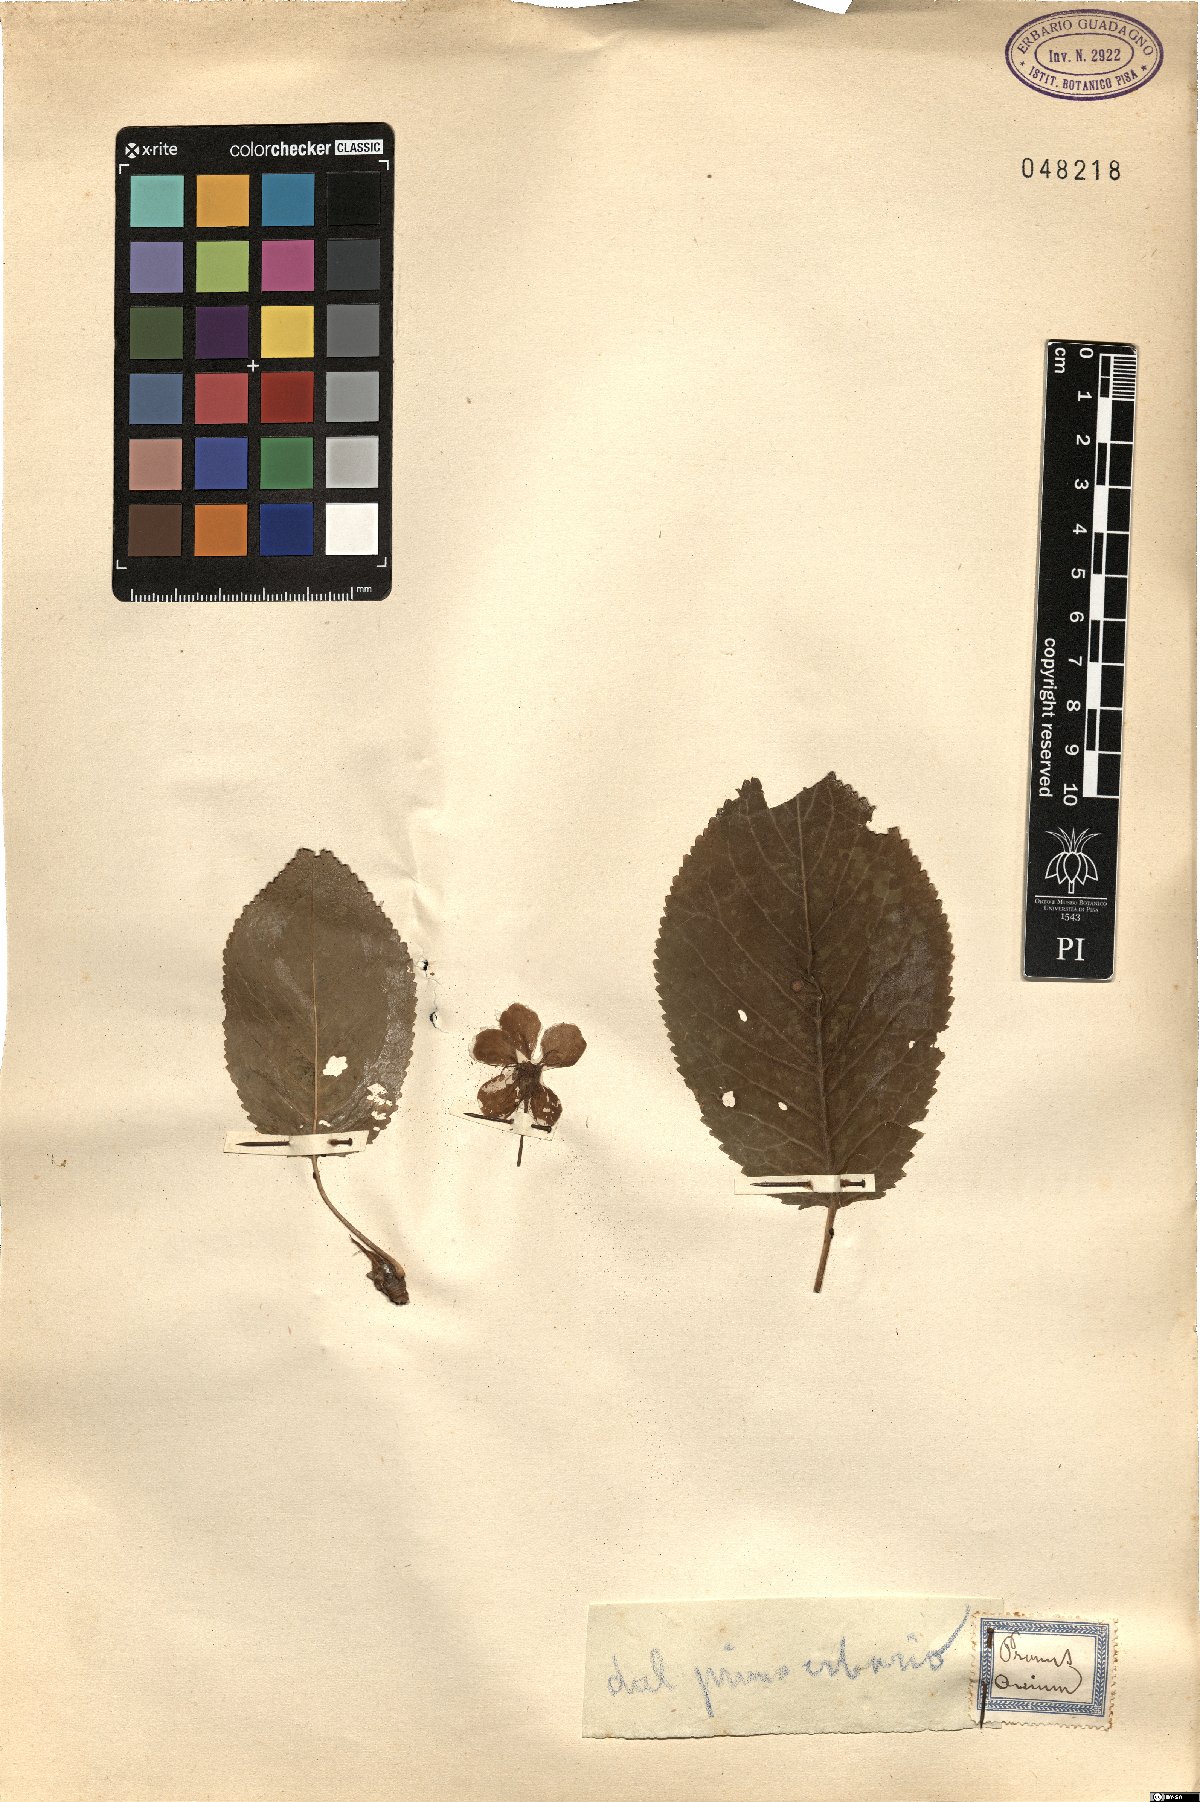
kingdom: Plantae
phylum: Tracheophyta
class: Magnoliopsida
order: Rosales
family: Rosaceae
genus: Prunus
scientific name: Prunus avium
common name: Sweet cherry
